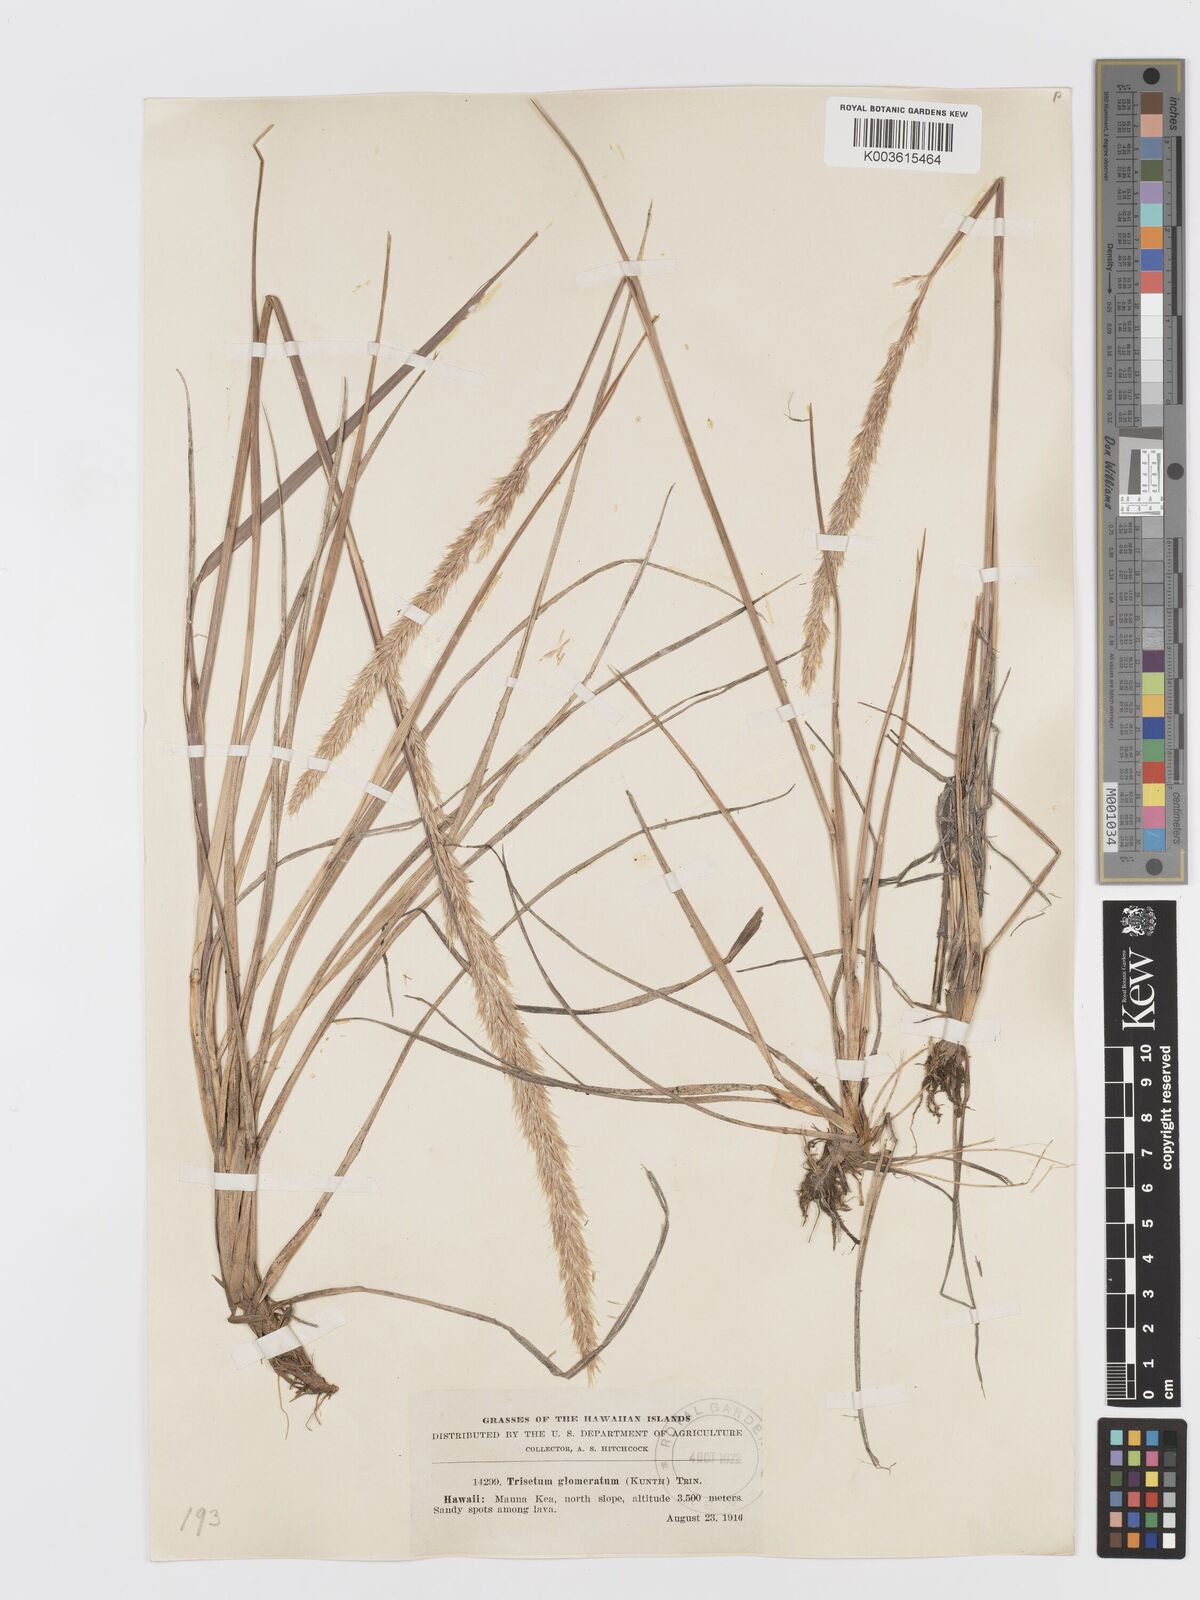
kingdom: Plantae
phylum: Tracheophyta
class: Liliopsida
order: Poales
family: Poaceae
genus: Trisetum
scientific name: Trisetum glomeratum
